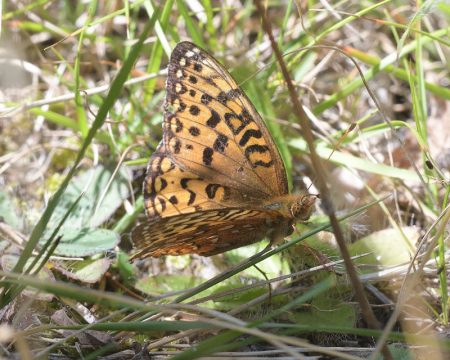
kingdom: Animalia
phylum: Arthropoda
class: Insecta
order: Lepidoptera
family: Nymphalidae
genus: Speyeria
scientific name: Speyeria aphrodite
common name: Aphrodite Fritillary
